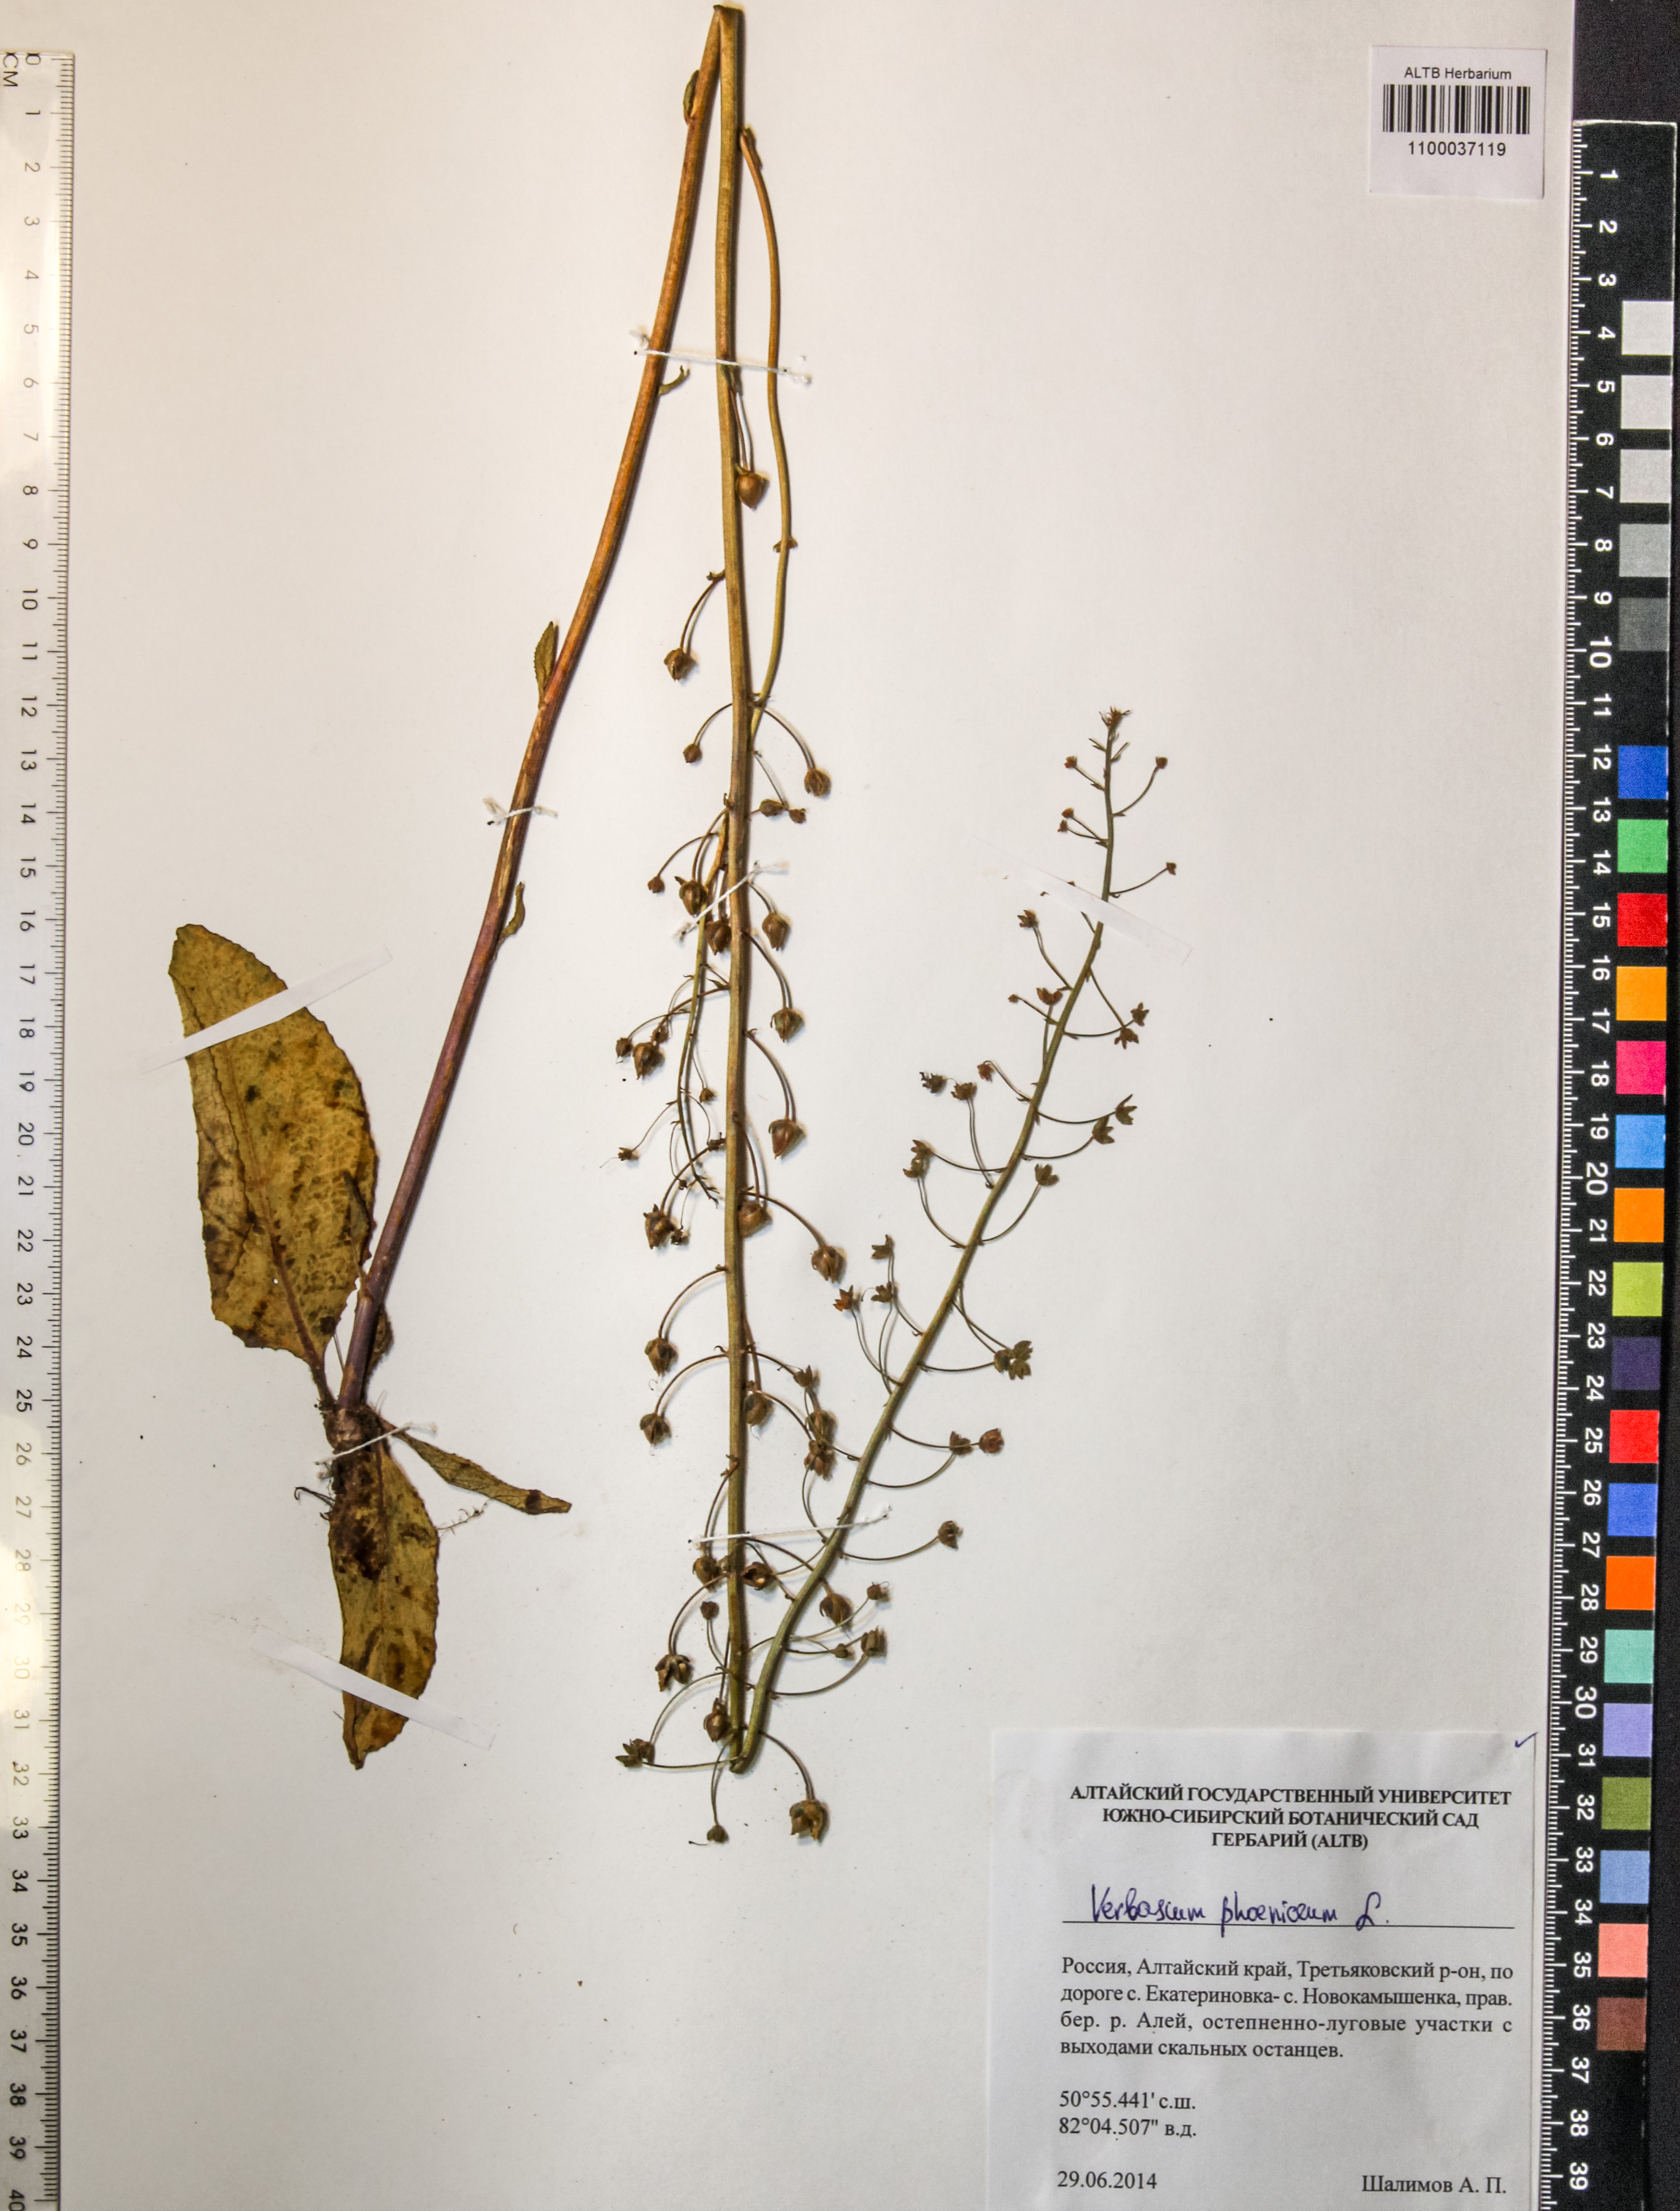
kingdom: Plantae
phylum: Tracheophyta
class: Magnoliopsida
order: Lamiales
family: Scrophulariaceae
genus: Verbascum
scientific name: Verbascum phoeniceum
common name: Purple mullein
